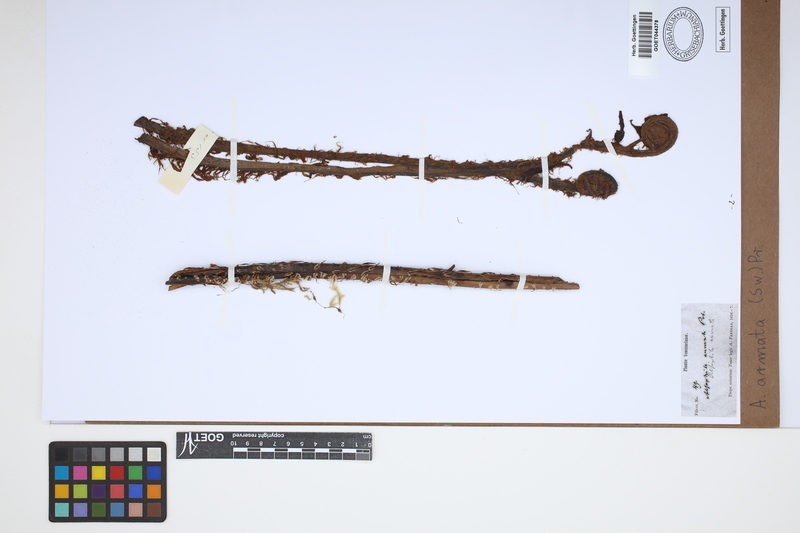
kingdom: Plantae
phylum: Tracheophyta
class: Polypodiopsida
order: Cyatheales
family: Cyatheaceae
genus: Cyathea
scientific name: Cyathea armata
